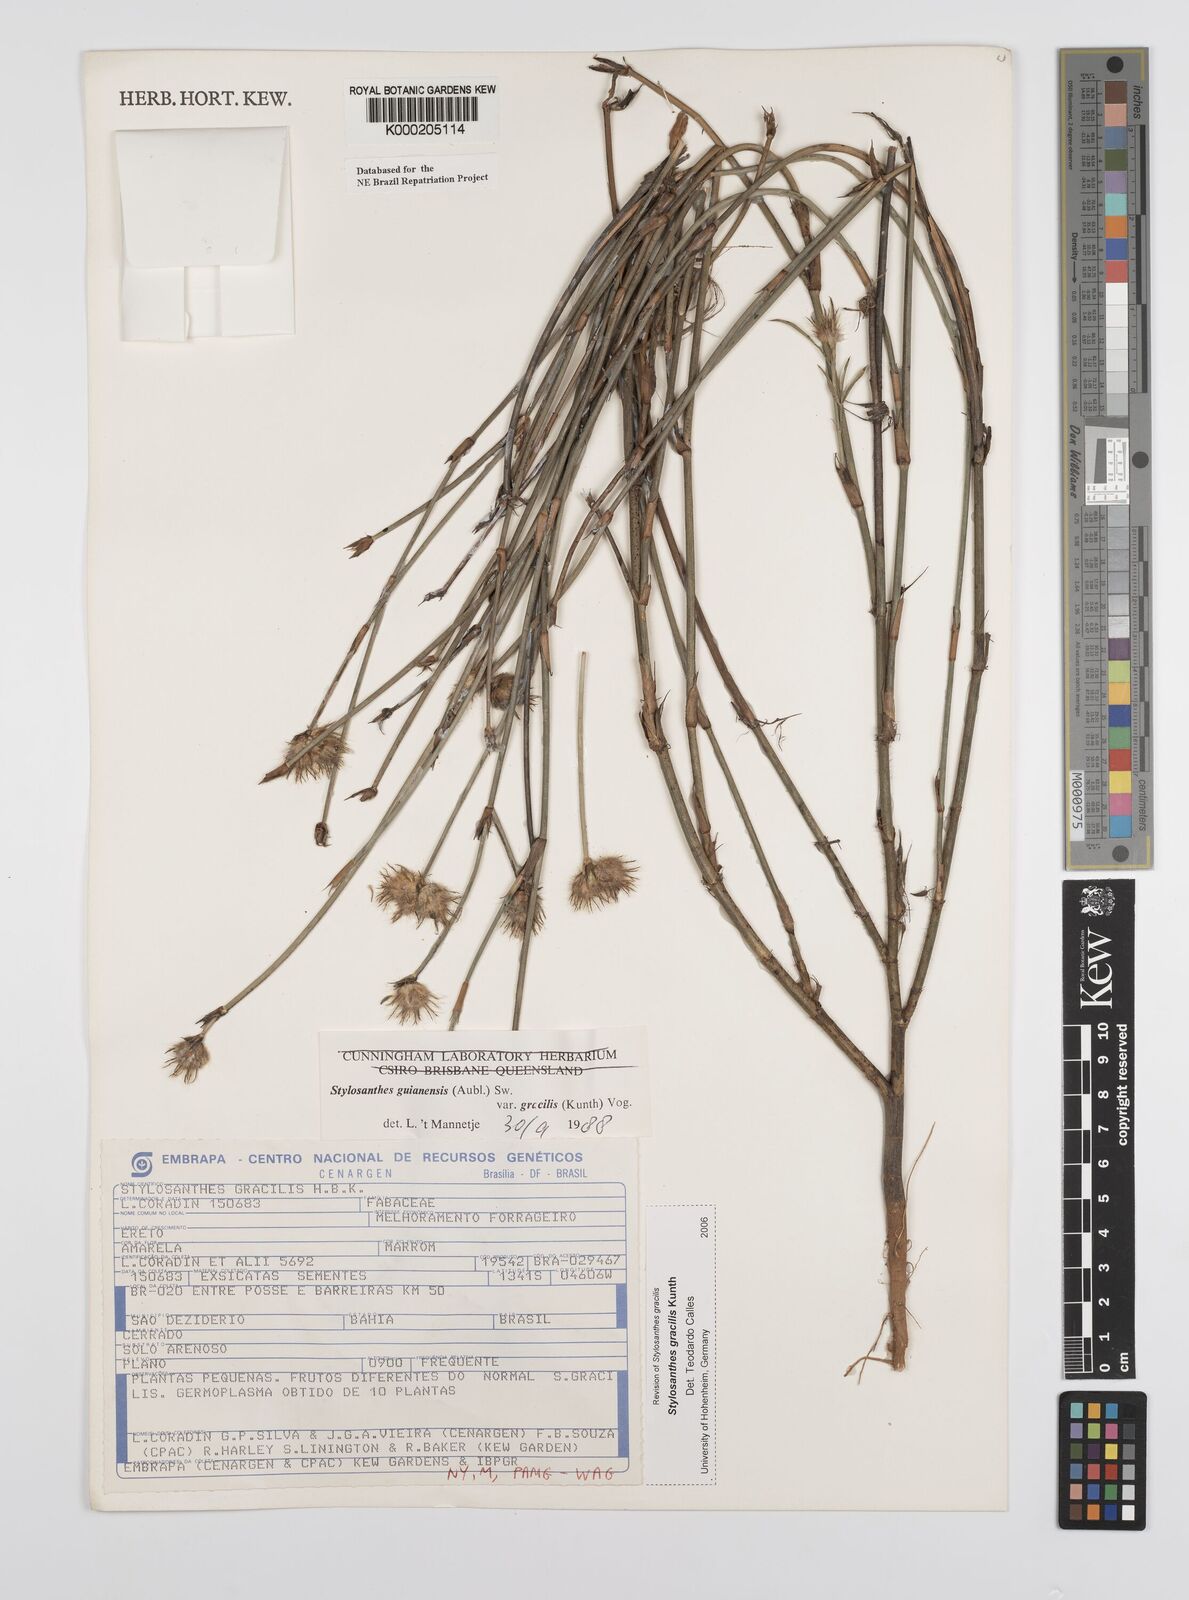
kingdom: Plantae
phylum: Tracheophyta
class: Magnoliopsida
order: Fabales
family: Fabaceae
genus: Stylosanthes
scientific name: Stylosanthes guianensis
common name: Pencil flower
